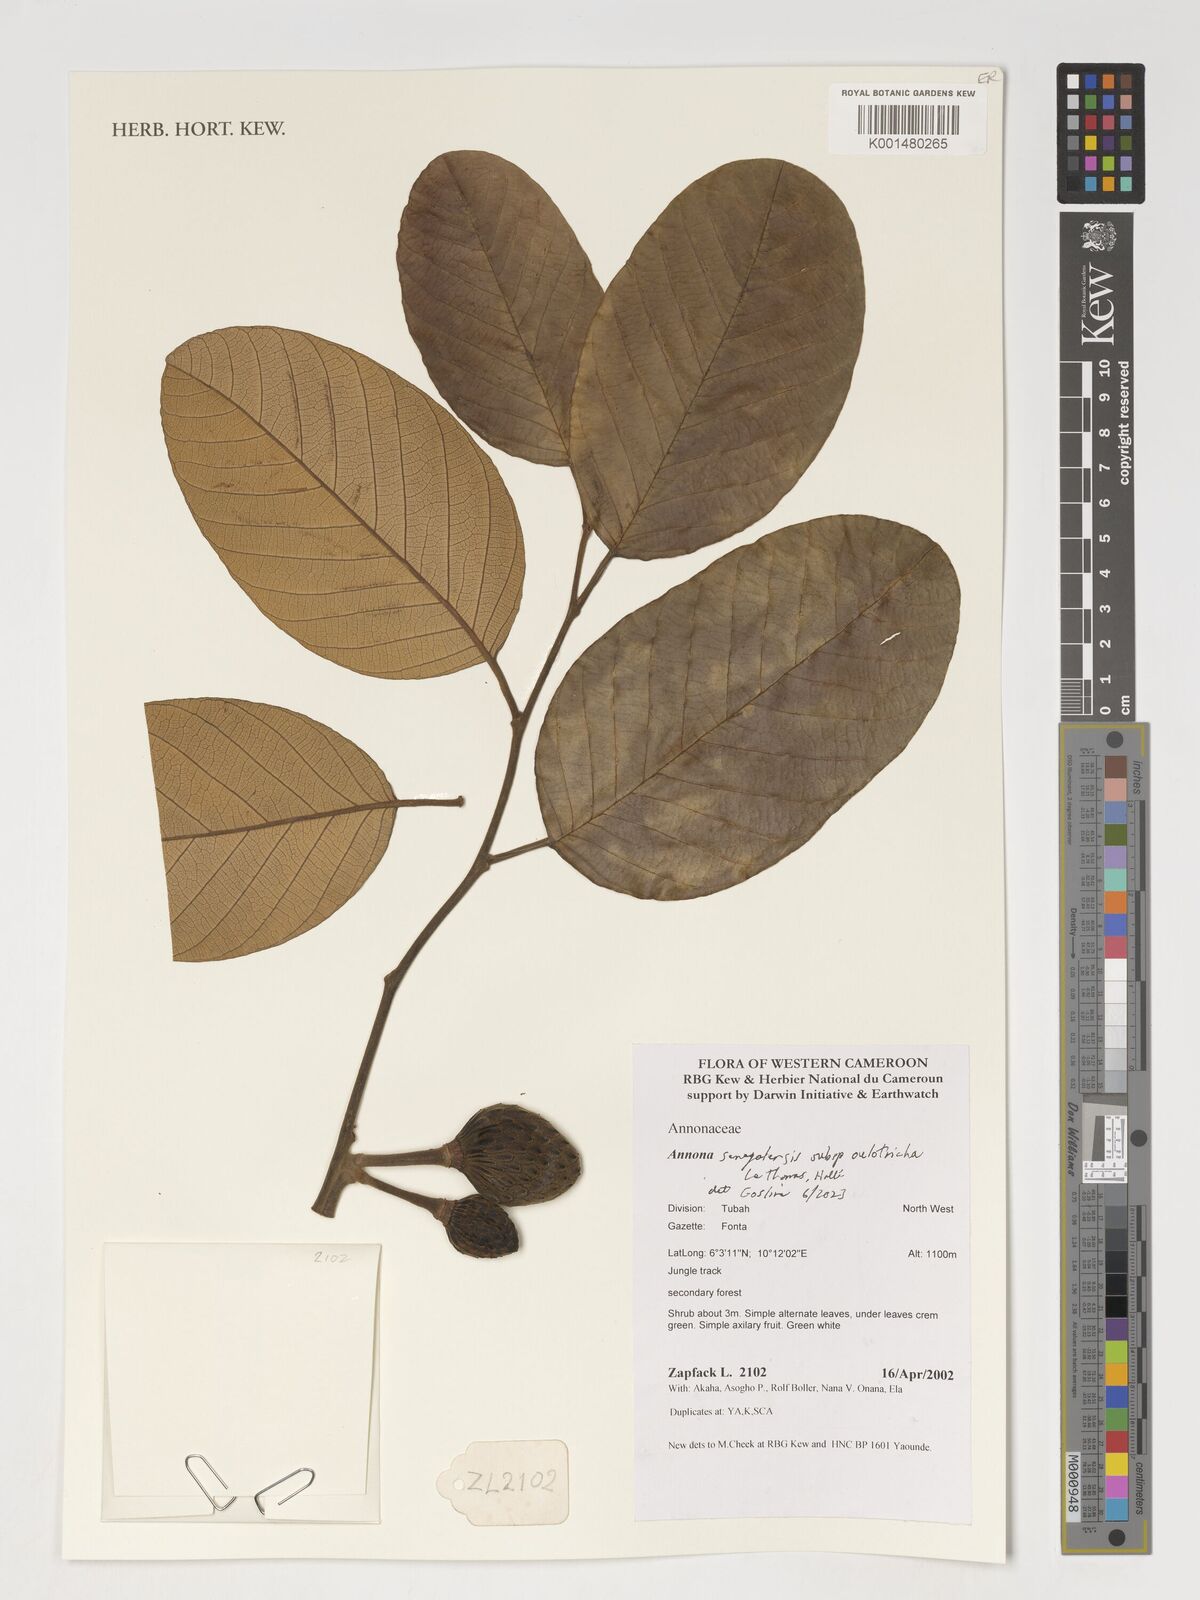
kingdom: Plantae
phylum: Tracheophyta
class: Magnoliopsida
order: Magnoliales
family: Annonaceae
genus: Annona
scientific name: Annona senegalensis
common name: Wild custard-apple
